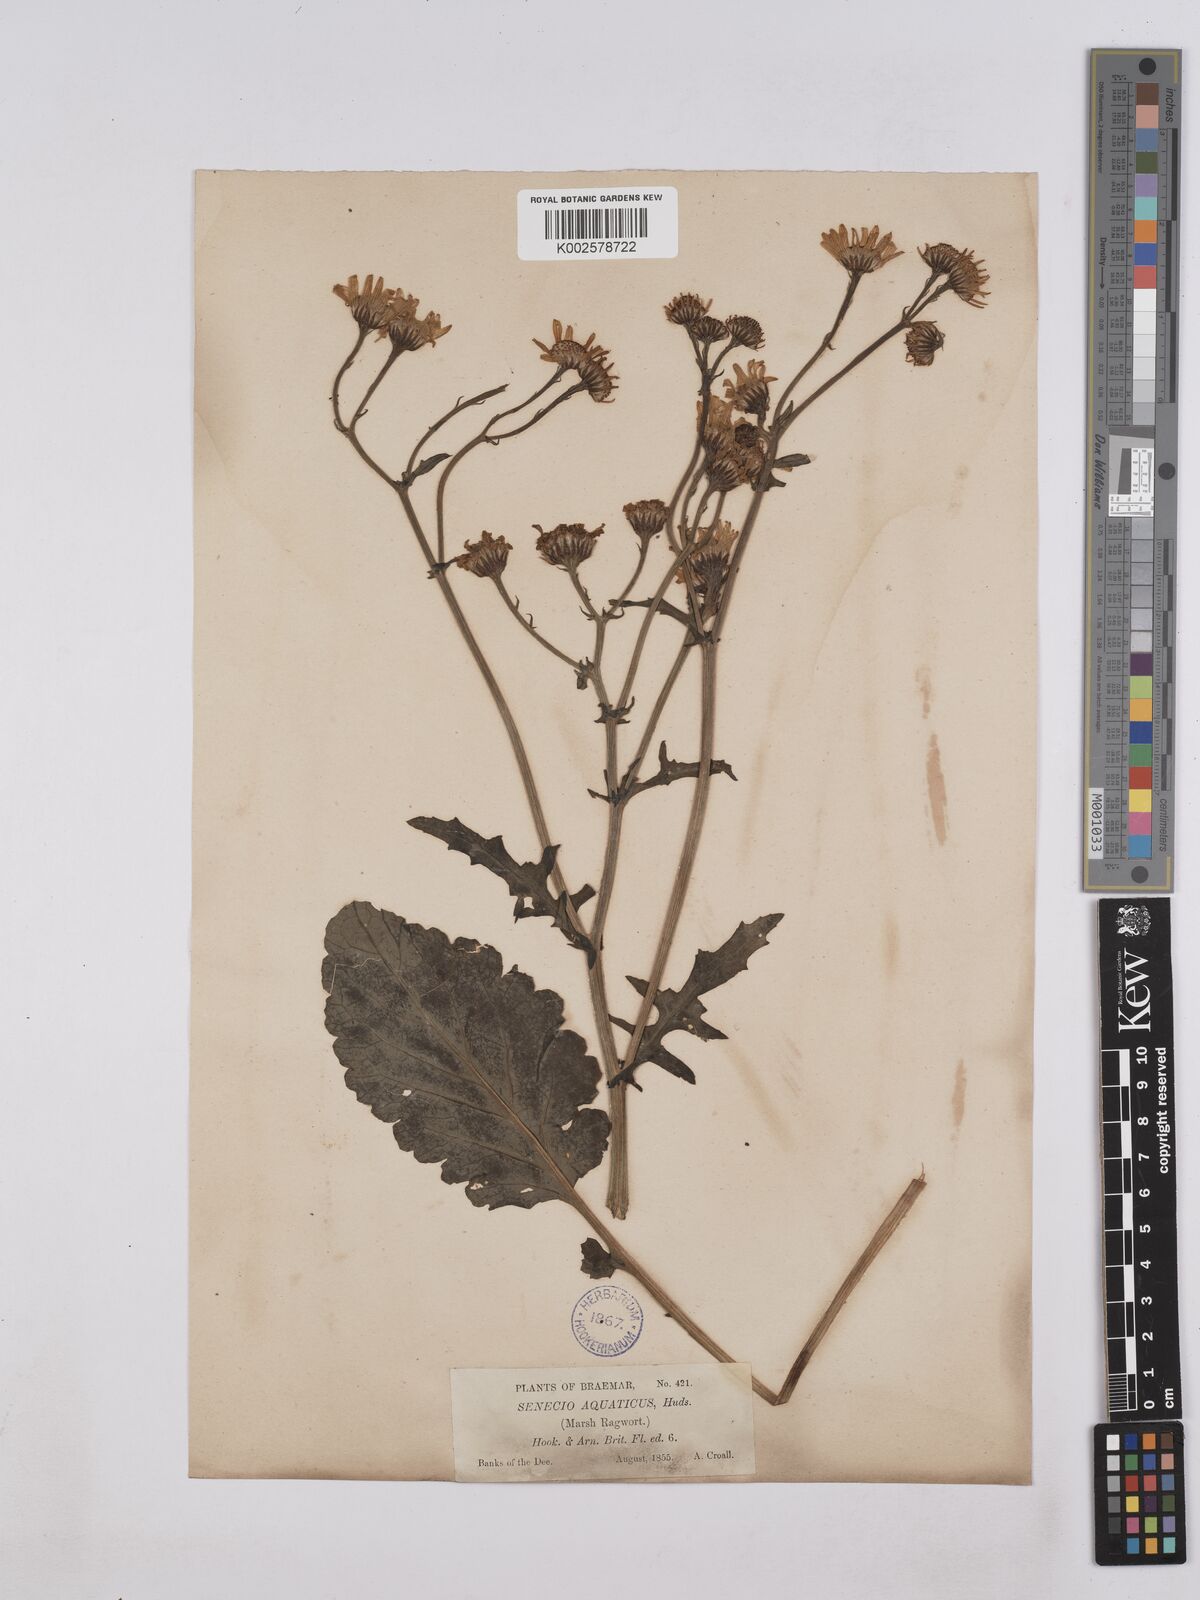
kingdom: Plantae
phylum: Tracheophyta
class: Magnoliopsida
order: Asterales
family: Asteraceae
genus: Jacobaea
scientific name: Jacobaea aquatica
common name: Water ragwort
